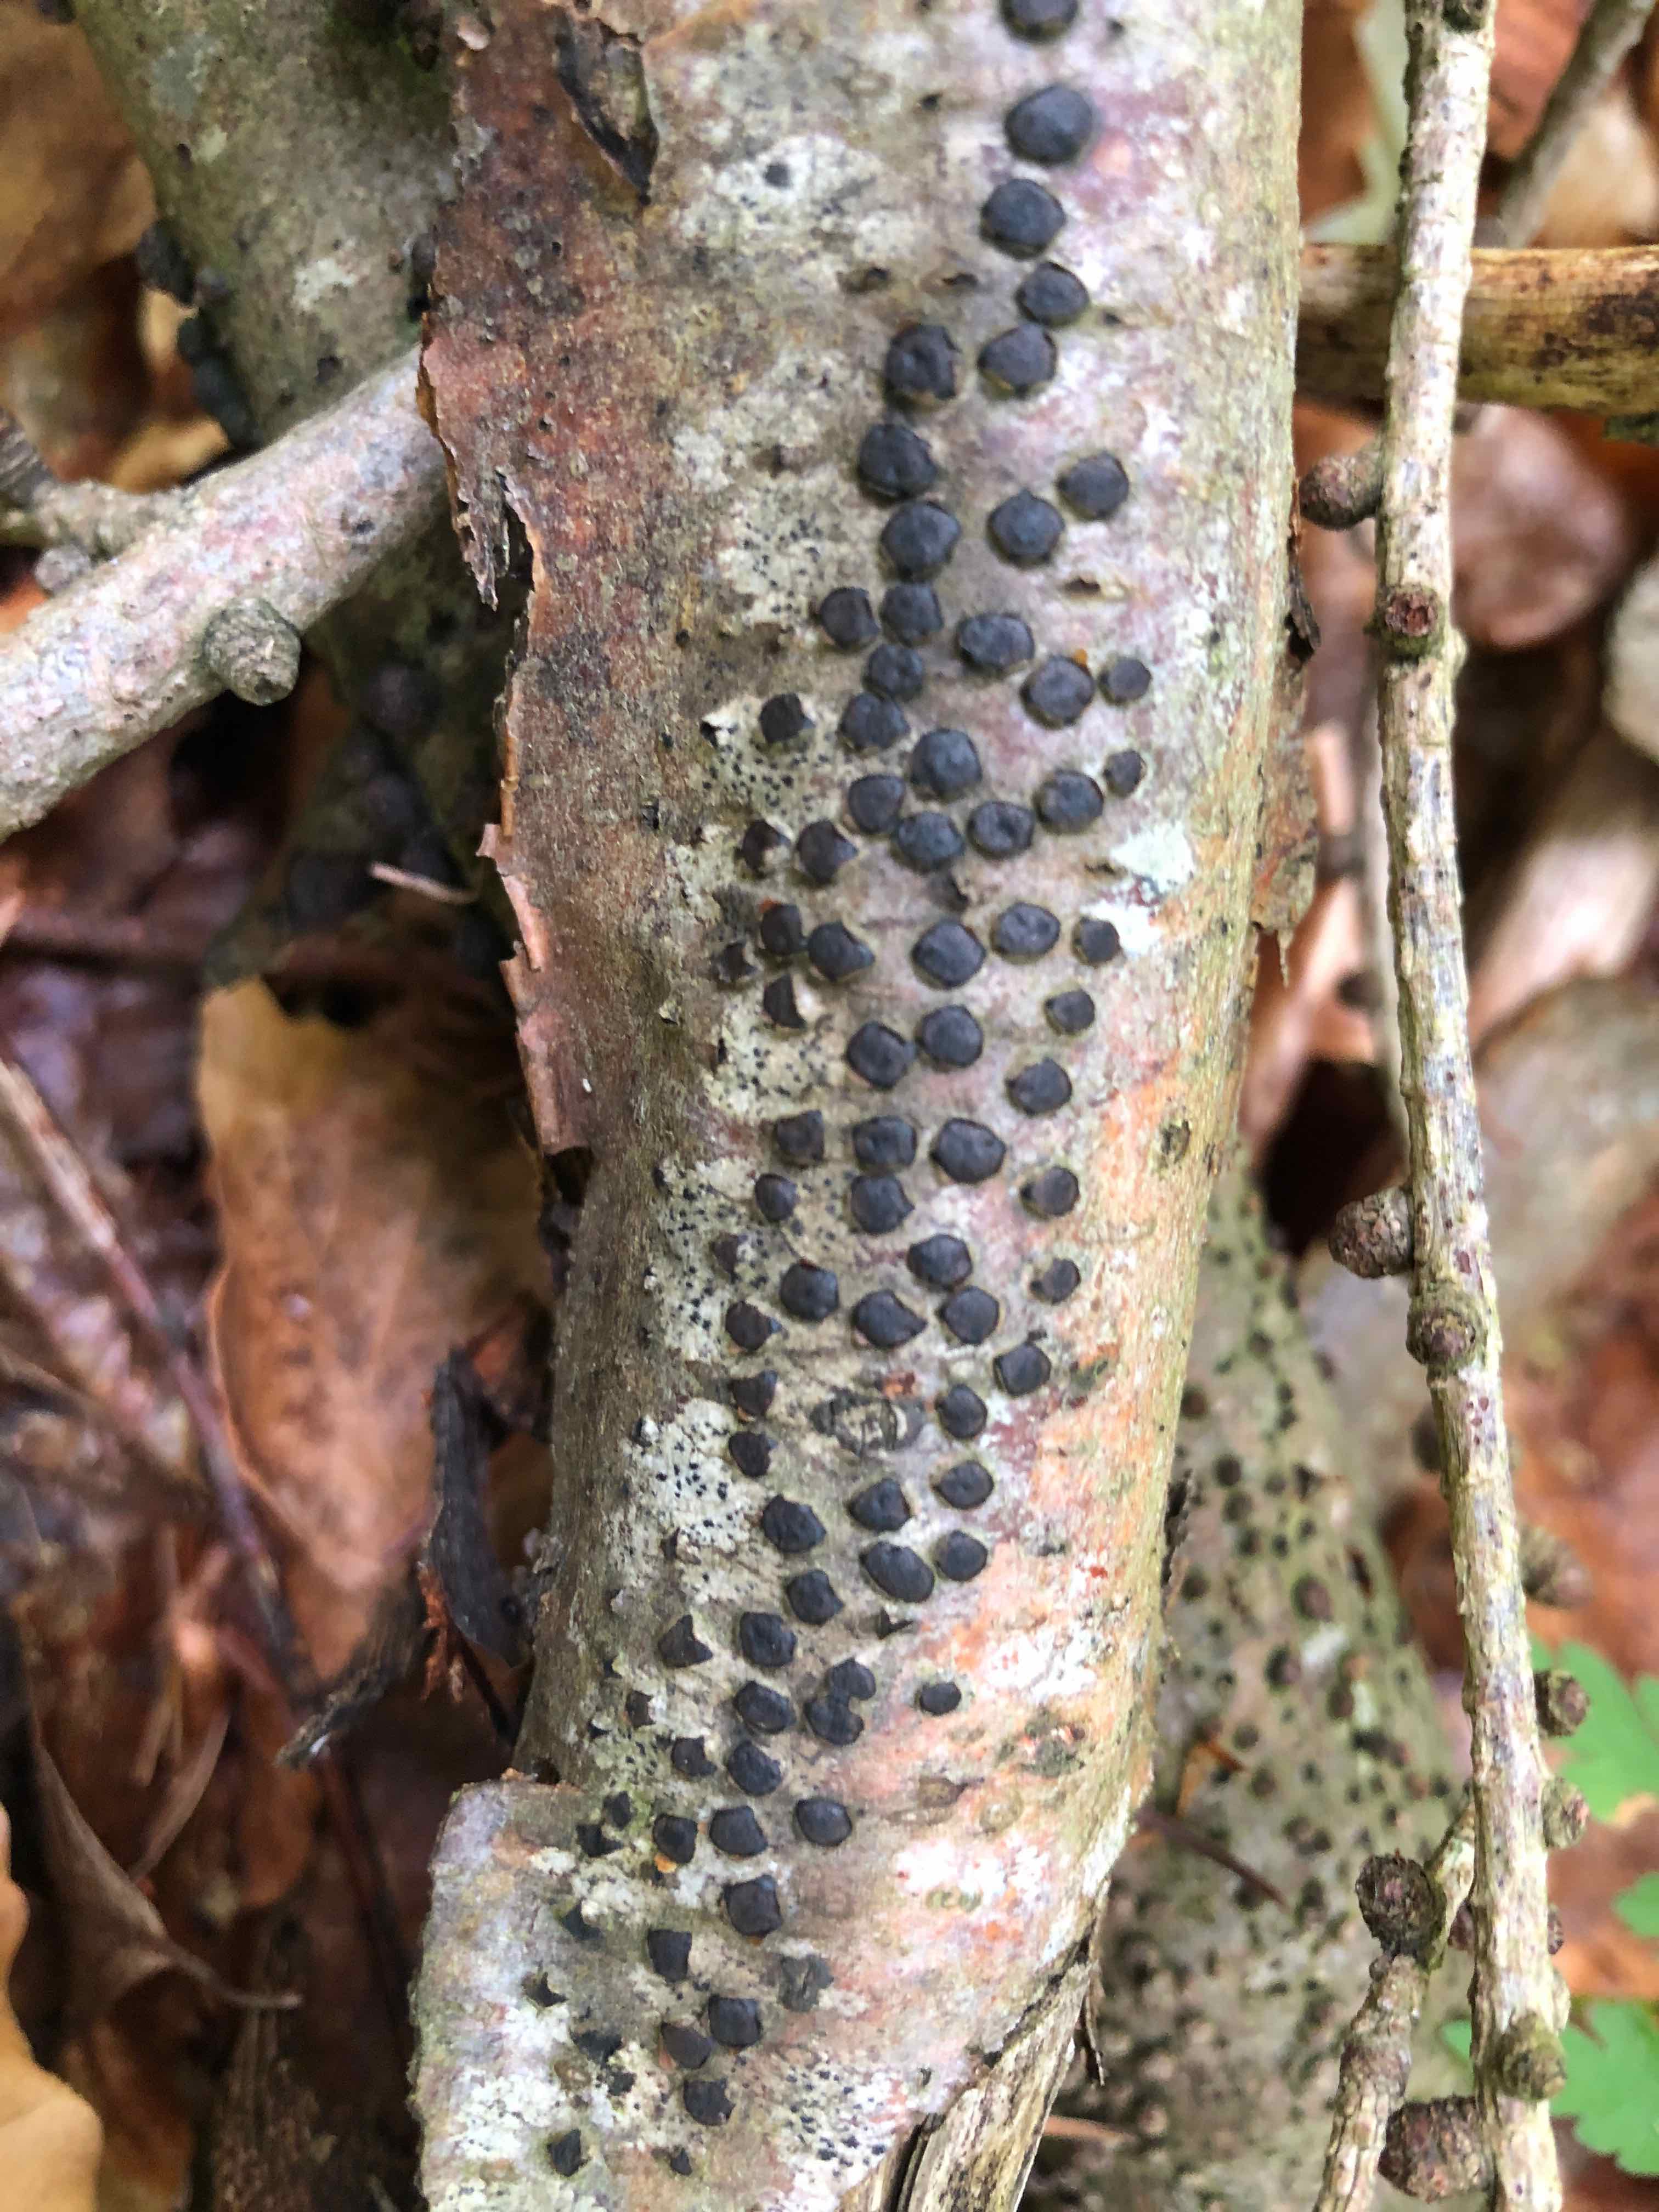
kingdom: Fungi
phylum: Ascomycota
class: Sordariomycetes
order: Xylariales
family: Diatrypaceae
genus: Diatrype
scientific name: Diatrype disciformis
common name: kant-kulskorpe
